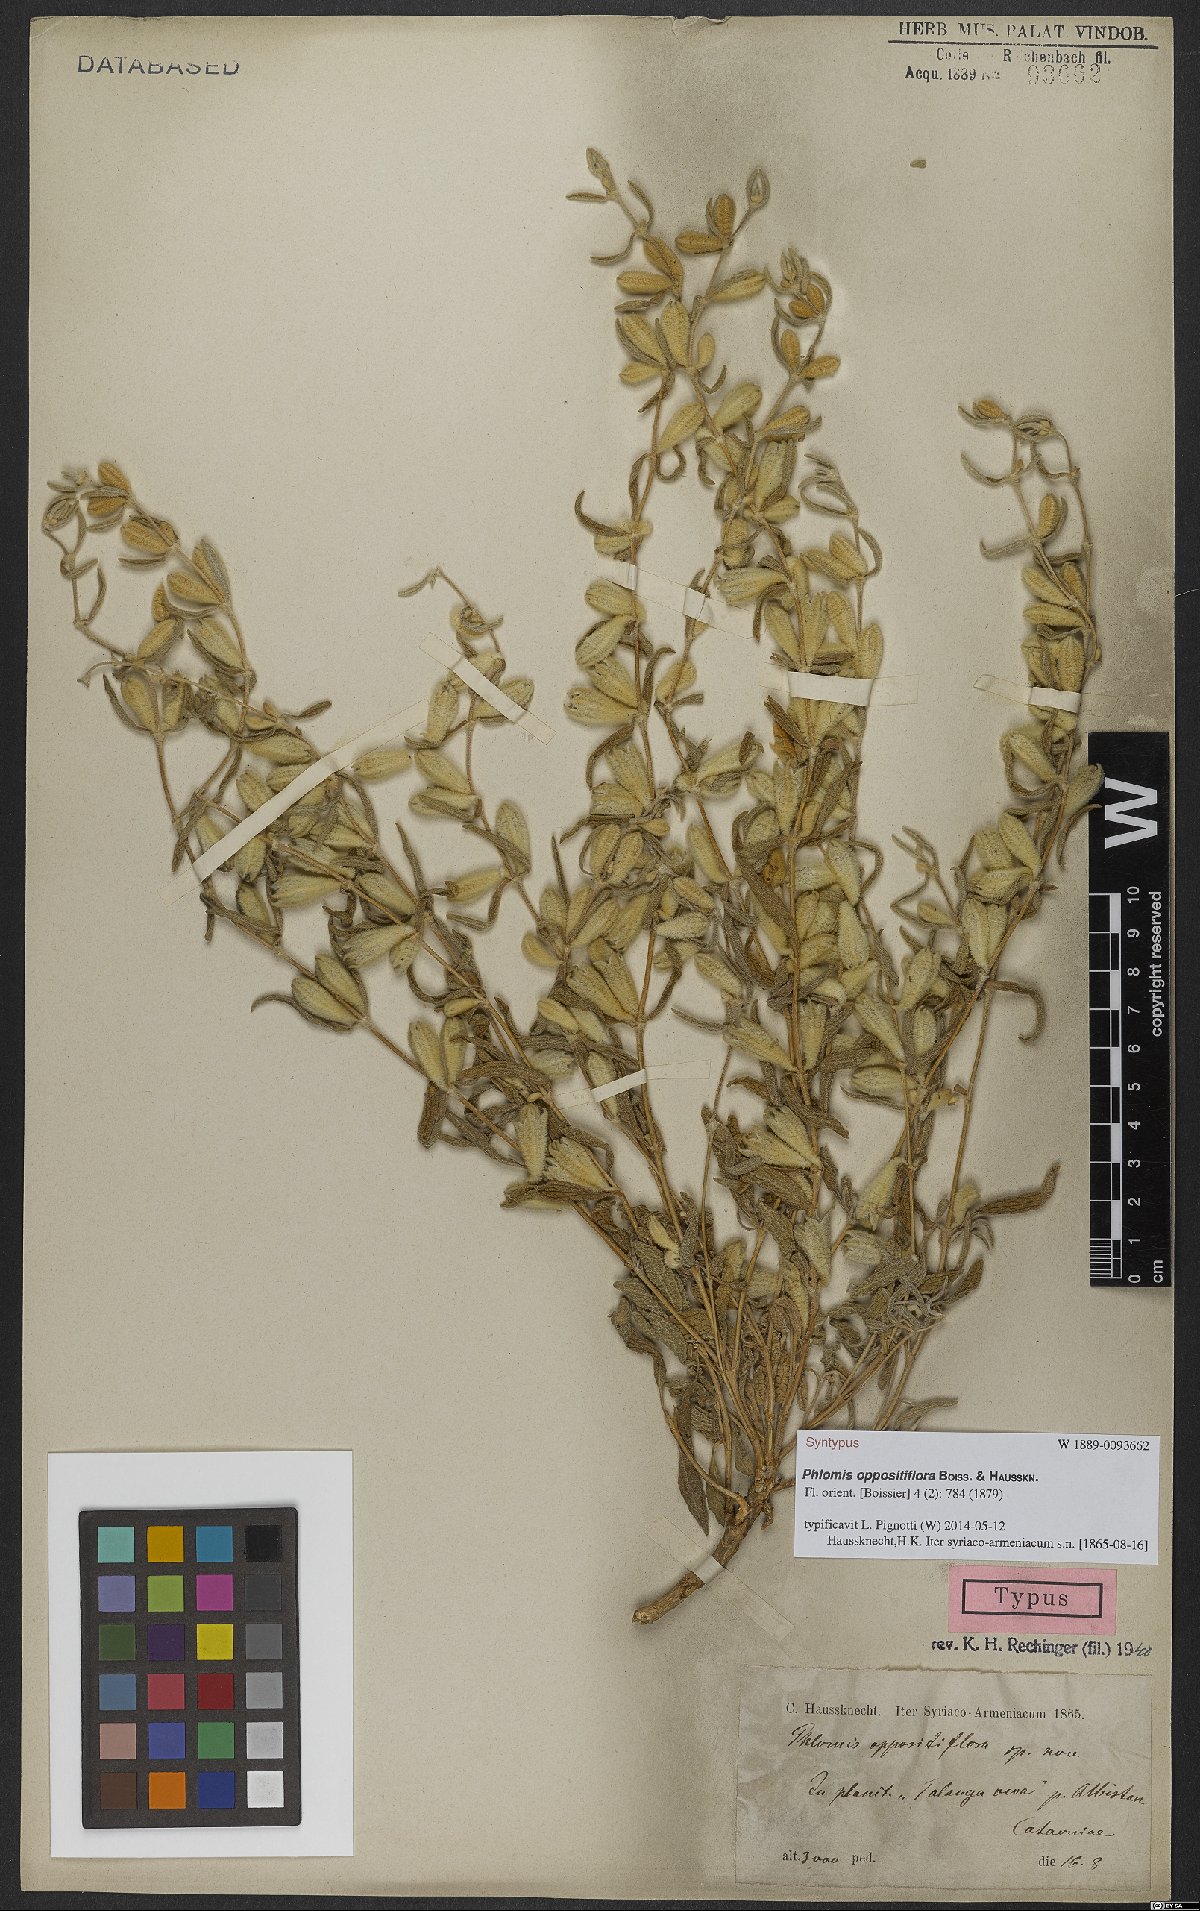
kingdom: Plantae
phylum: Tracheophyta
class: Magnoliopsida
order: Lamiales
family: Lamiaceae
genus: Phlomis
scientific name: Phlomis oppositiflora
